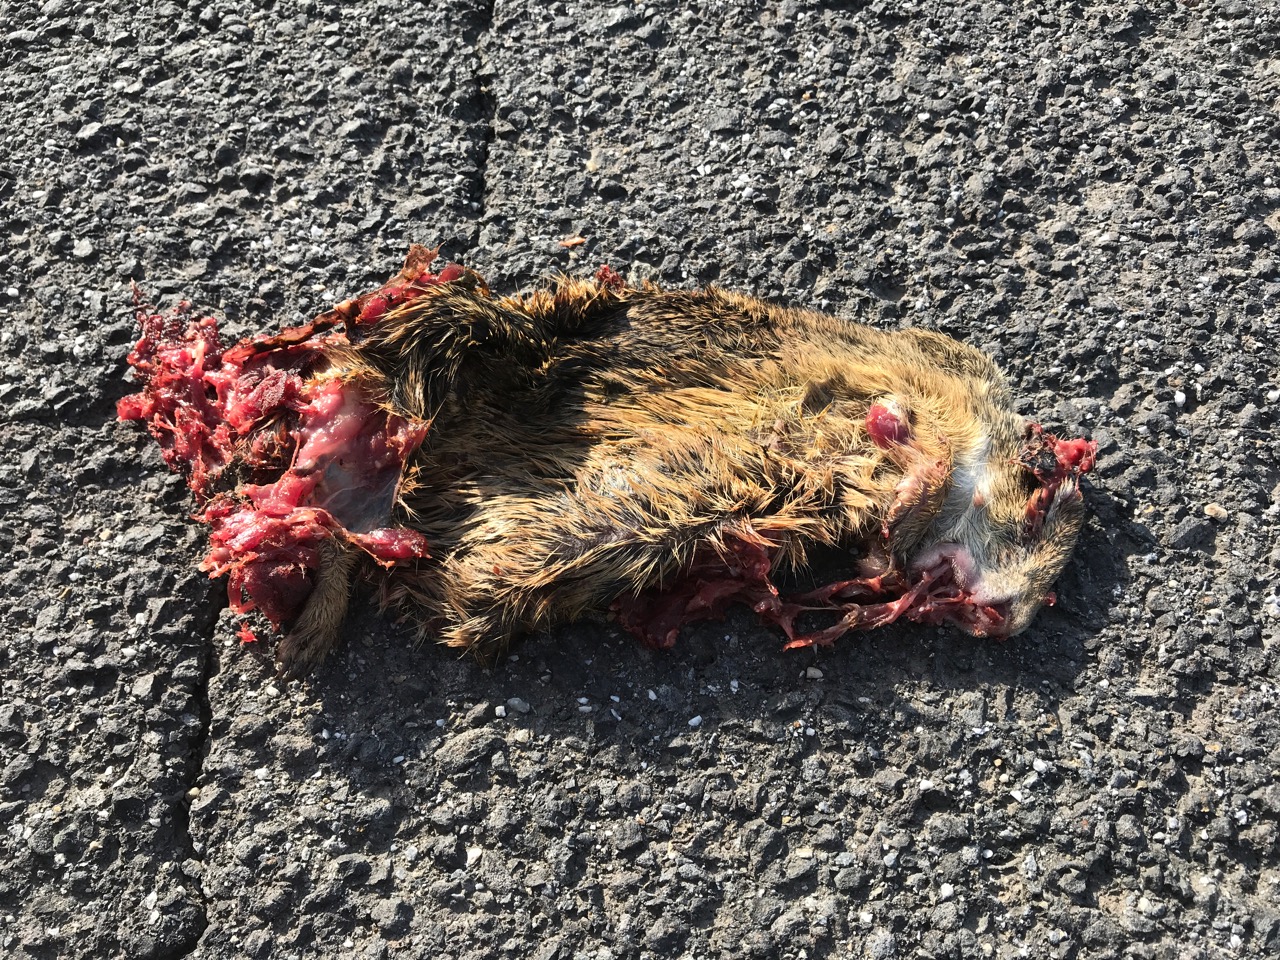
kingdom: Animalia
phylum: Chordata
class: Mammalia
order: Rodentia
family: Sciuridae
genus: Spermophilus
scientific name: Spermophilus citellus
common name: European ground squirrel
